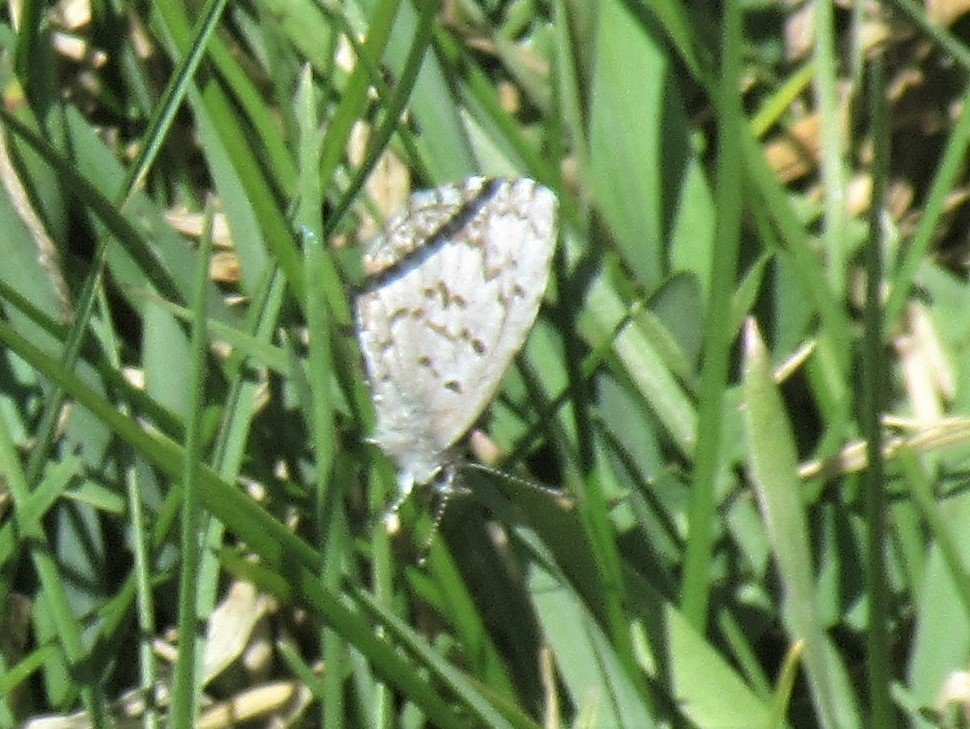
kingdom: Animalia
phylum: Arthropoda
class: Insecta
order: Lepidoptera
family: Lycaenidae
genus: Celastrina
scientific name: Celastrina ladon
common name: Spring Azure
